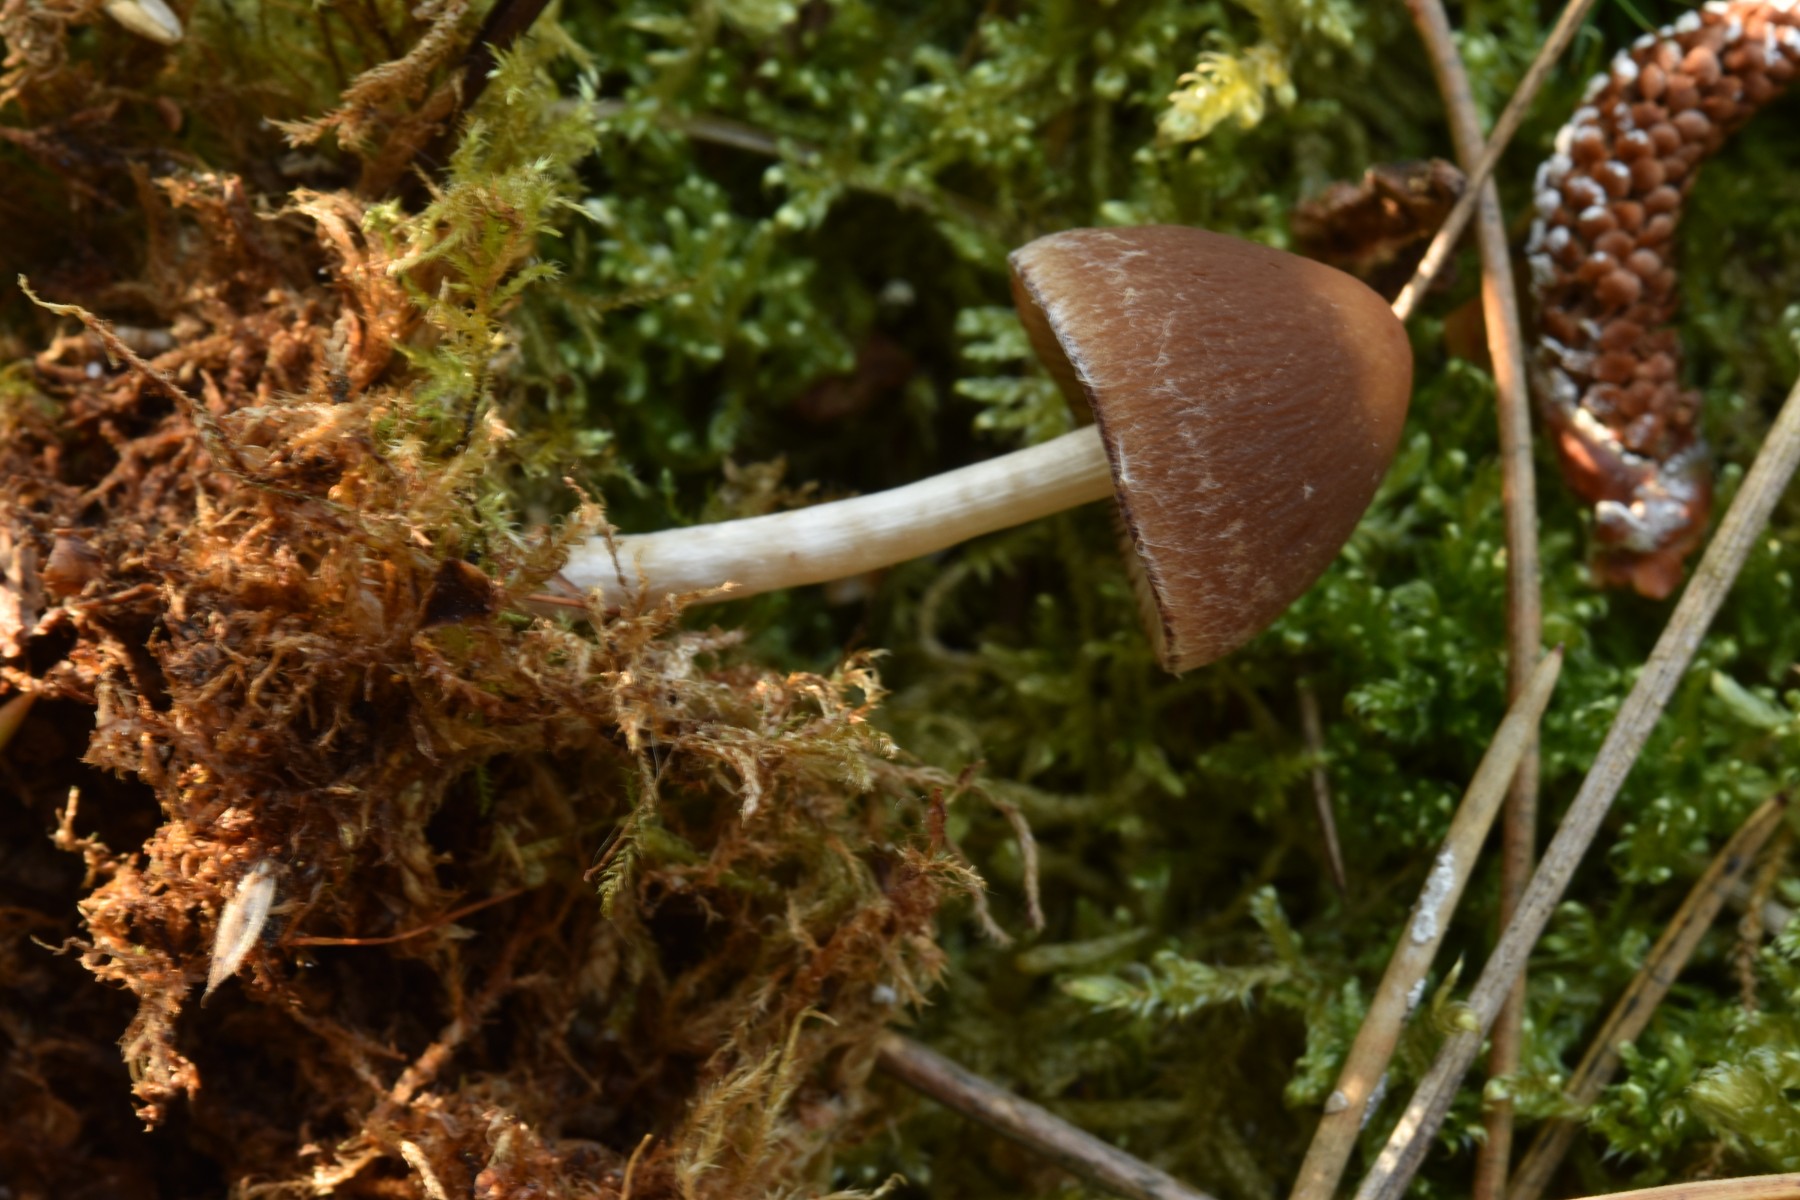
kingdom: Fungi
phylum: Basidiomycota
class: Agaricomycetes
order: Agaricales
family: Psathyrellaceae
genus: Psathyrella
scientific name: Psathyrella
